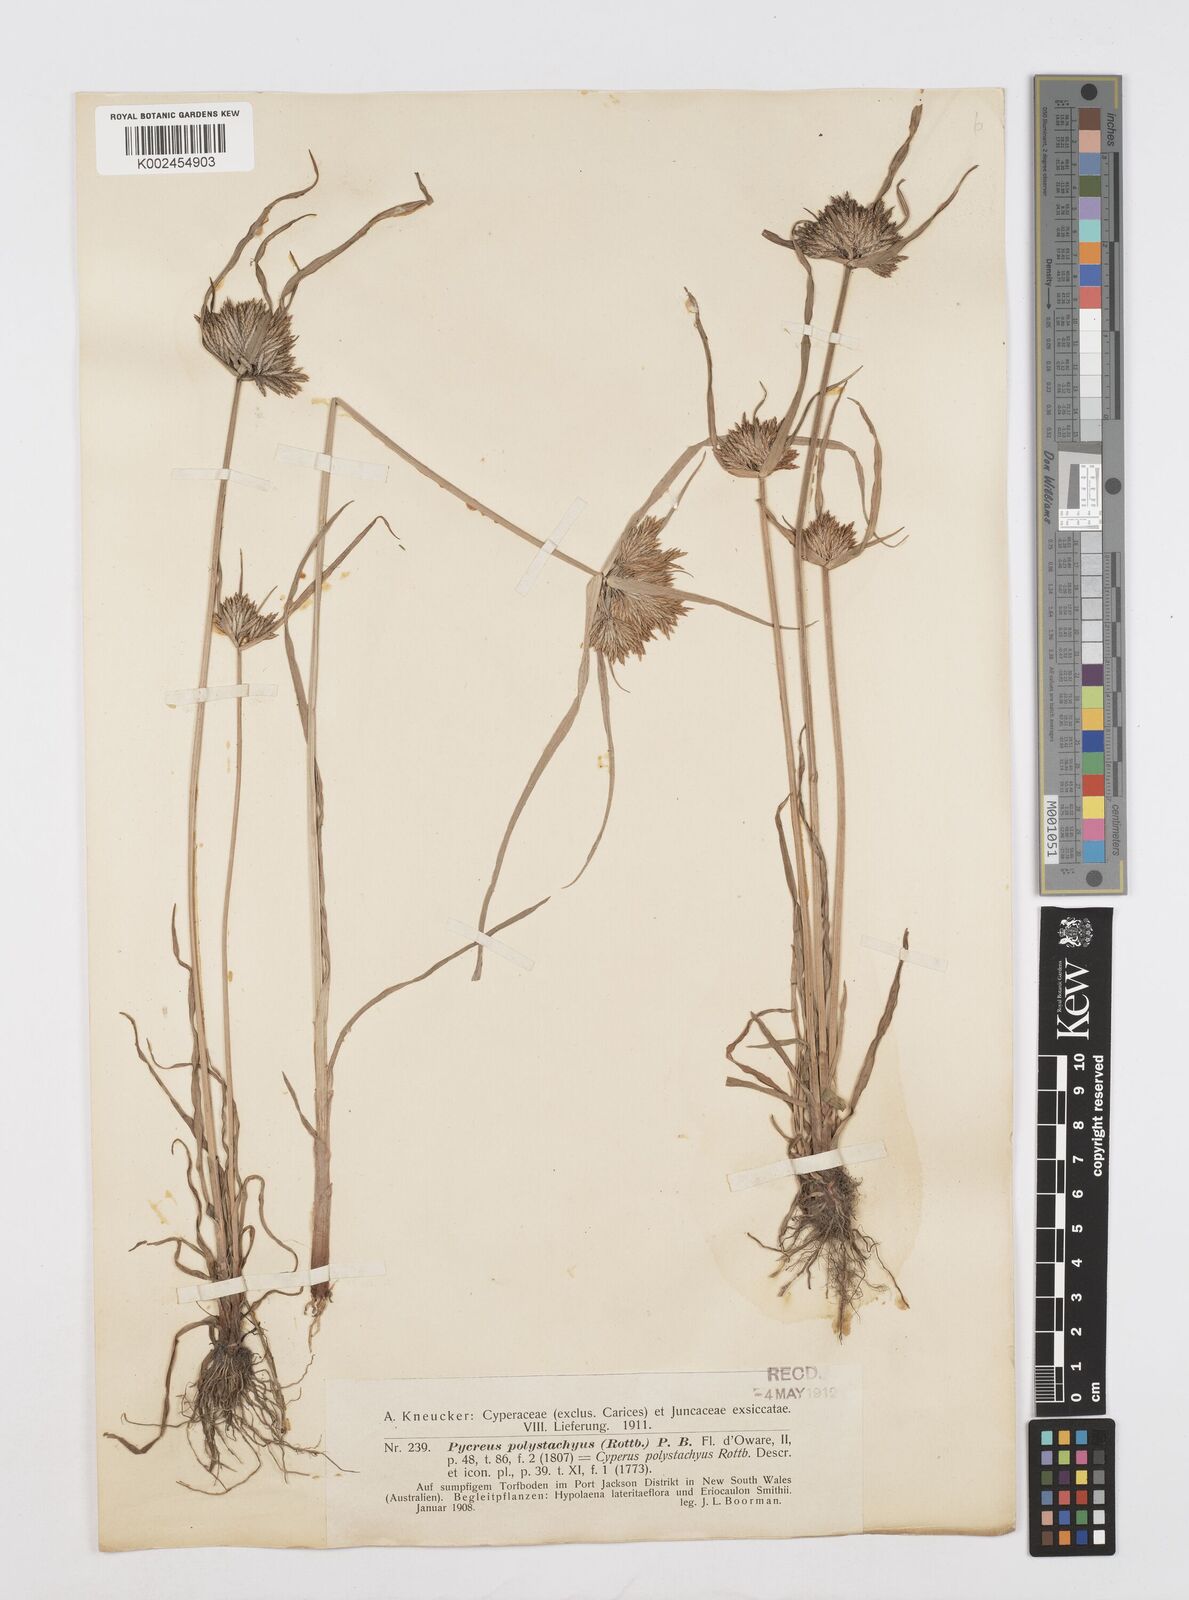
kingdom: Plantae
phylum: Tracheophyta
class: Liliopsida
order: Poales
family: Cyperaceae
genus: Cyperus
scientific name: Cyperus polystachyos
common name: Bunchy flat sedge
